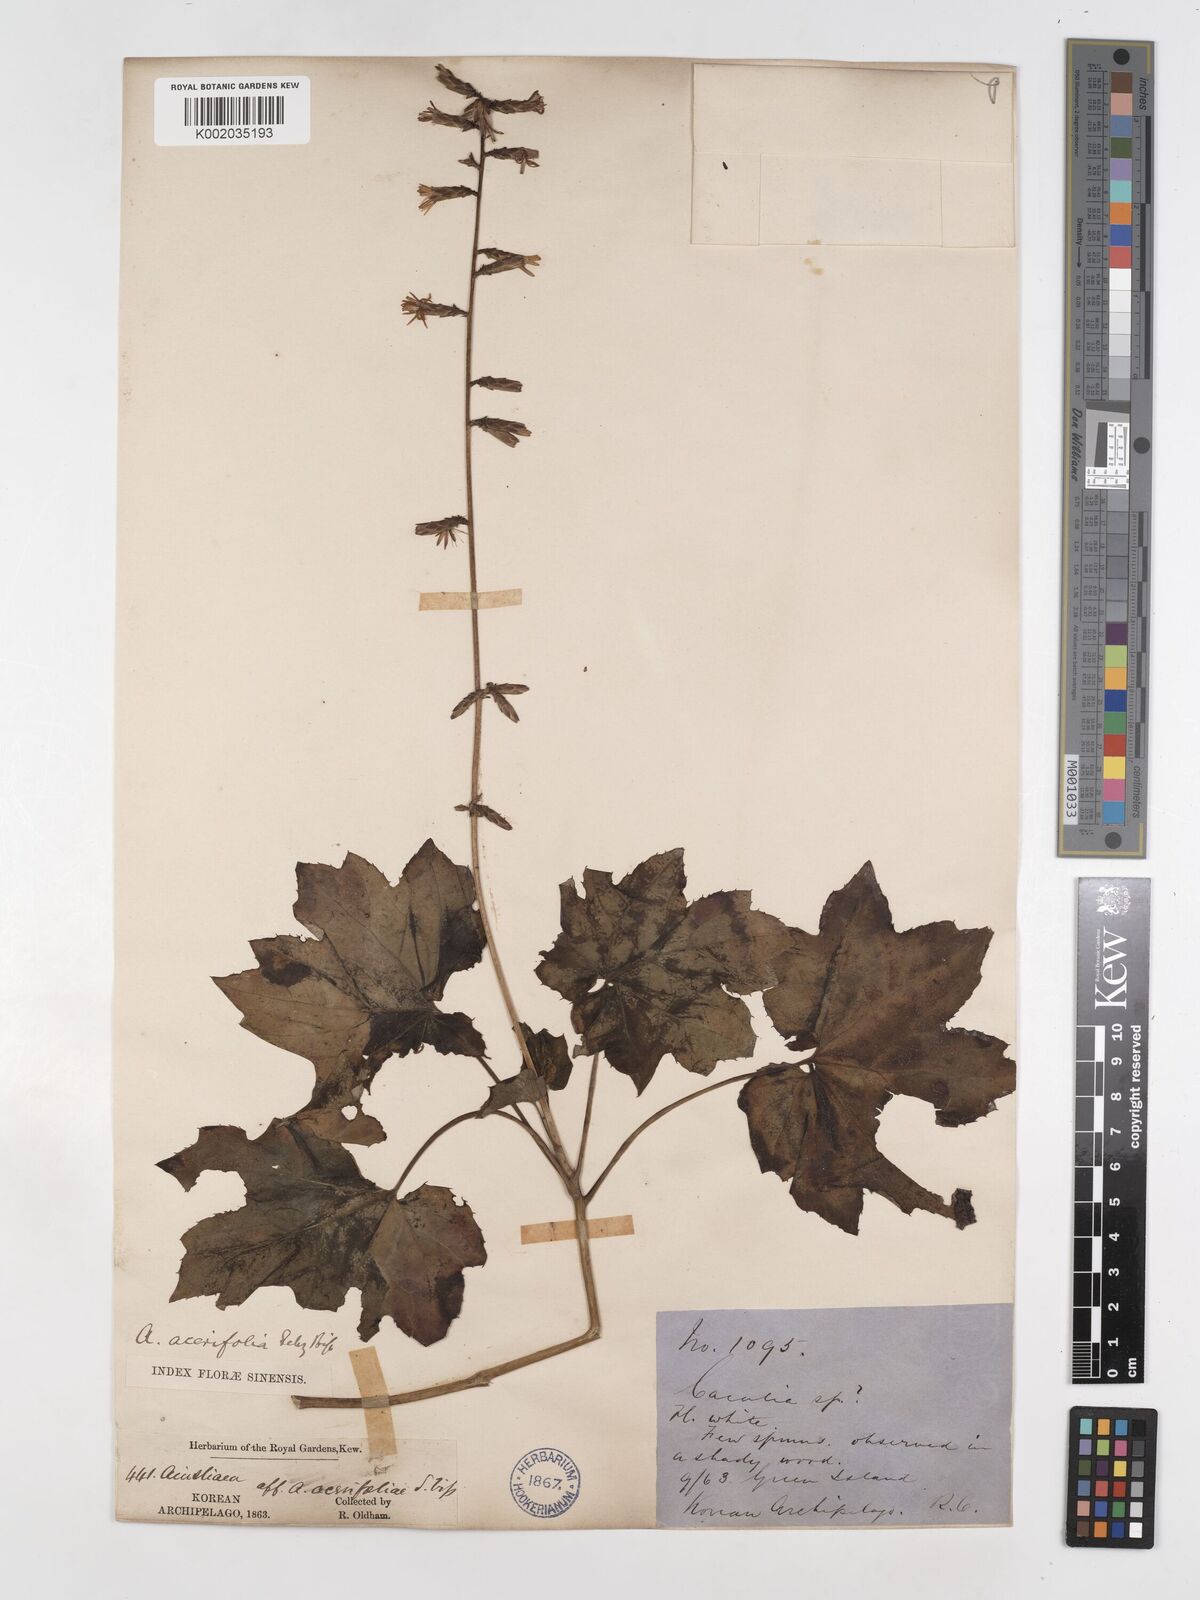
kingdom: Plantae
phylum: Tracheophyta
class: Magnoliopsida
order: Asterales
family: Asteraceae
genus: Ainsliaea
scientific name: Ainsliaea acerifolia
